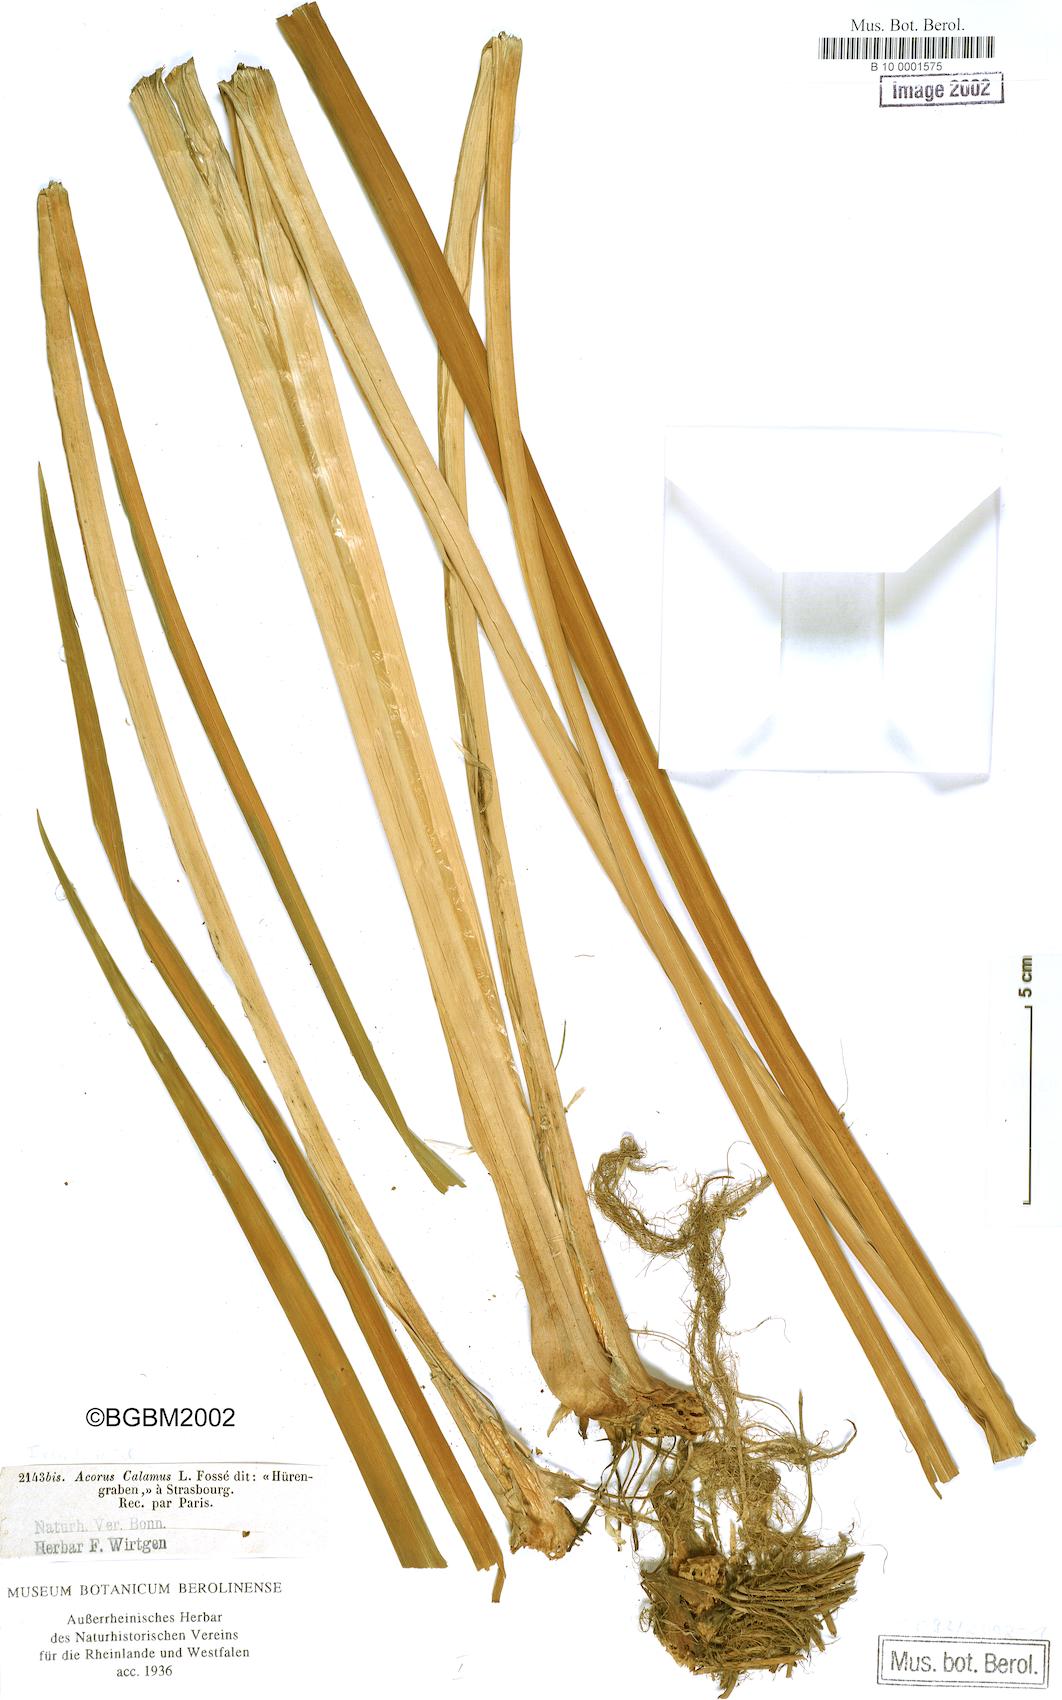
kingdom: Plantae
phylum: Tracheophyta
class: Liliopsida
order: Acorales
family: Acoraceae
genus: Acorus
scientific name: Acorus calamus
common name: Sweet-flag
